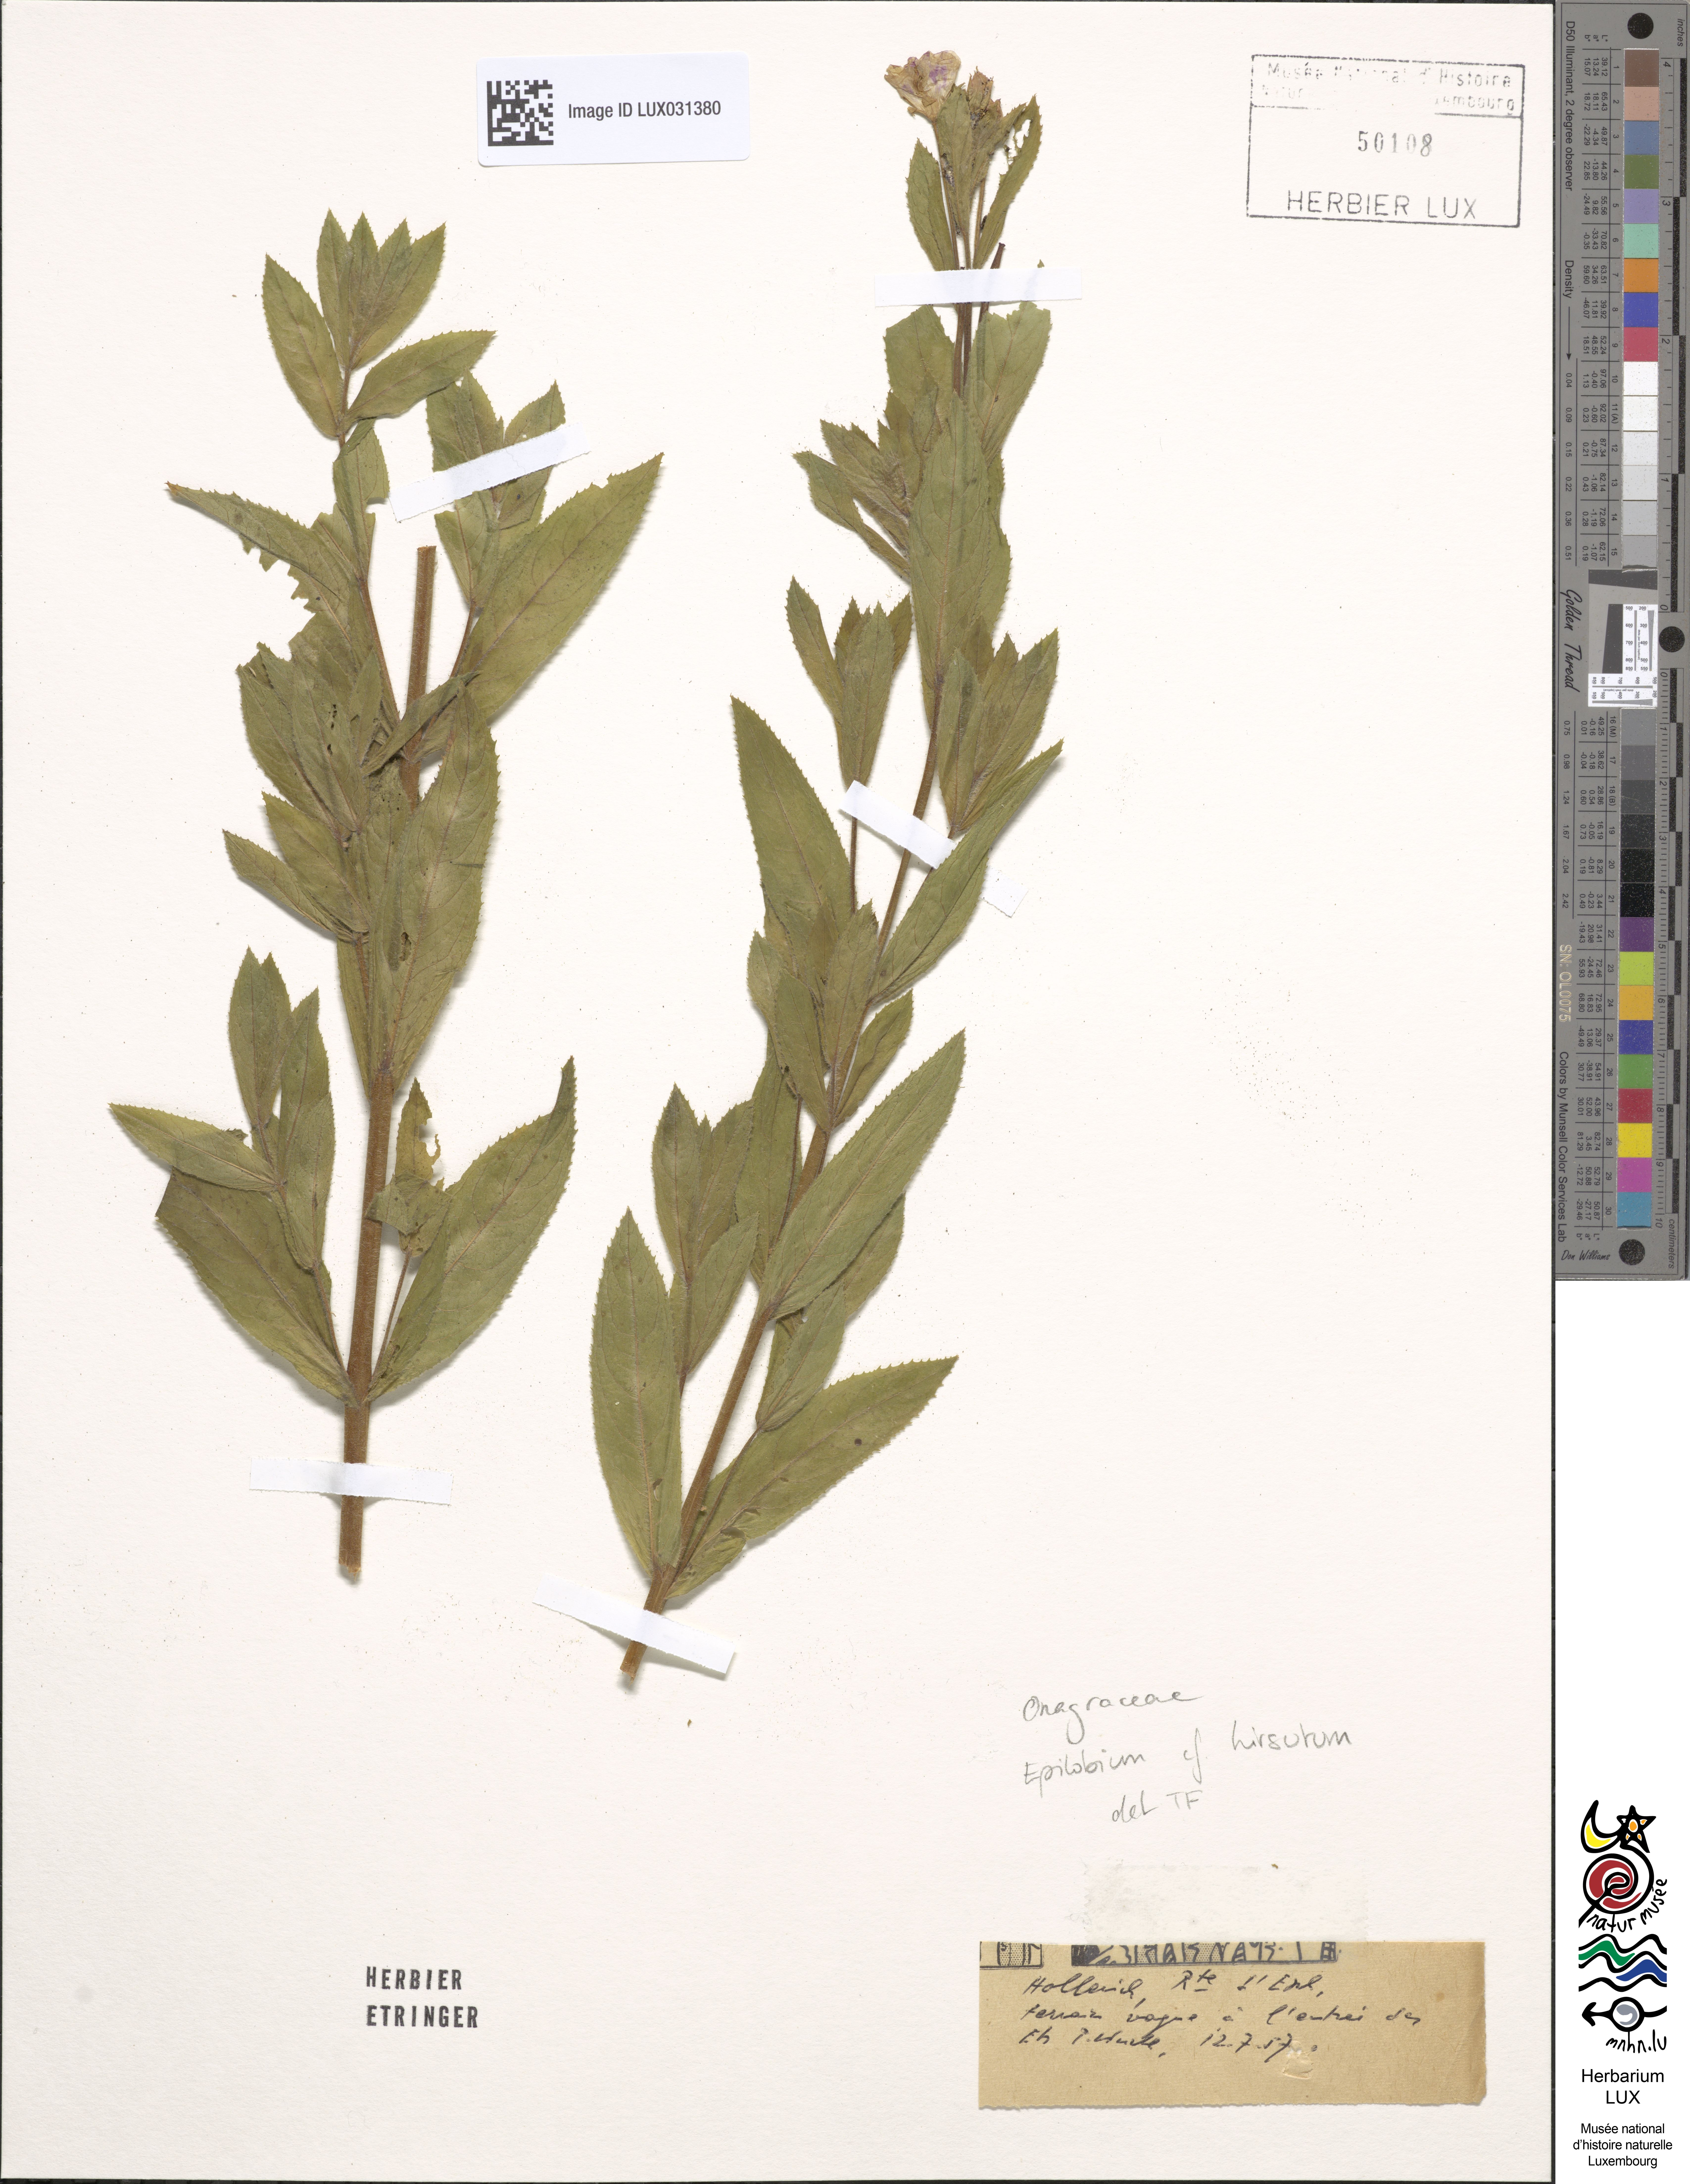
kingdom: Plantae
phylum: Tracheophyta
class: Magnoliopsida
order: Myrtales
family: Onagraceae
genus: Epilobium
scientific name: Epilobium hirsutum
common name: Great willowherb
